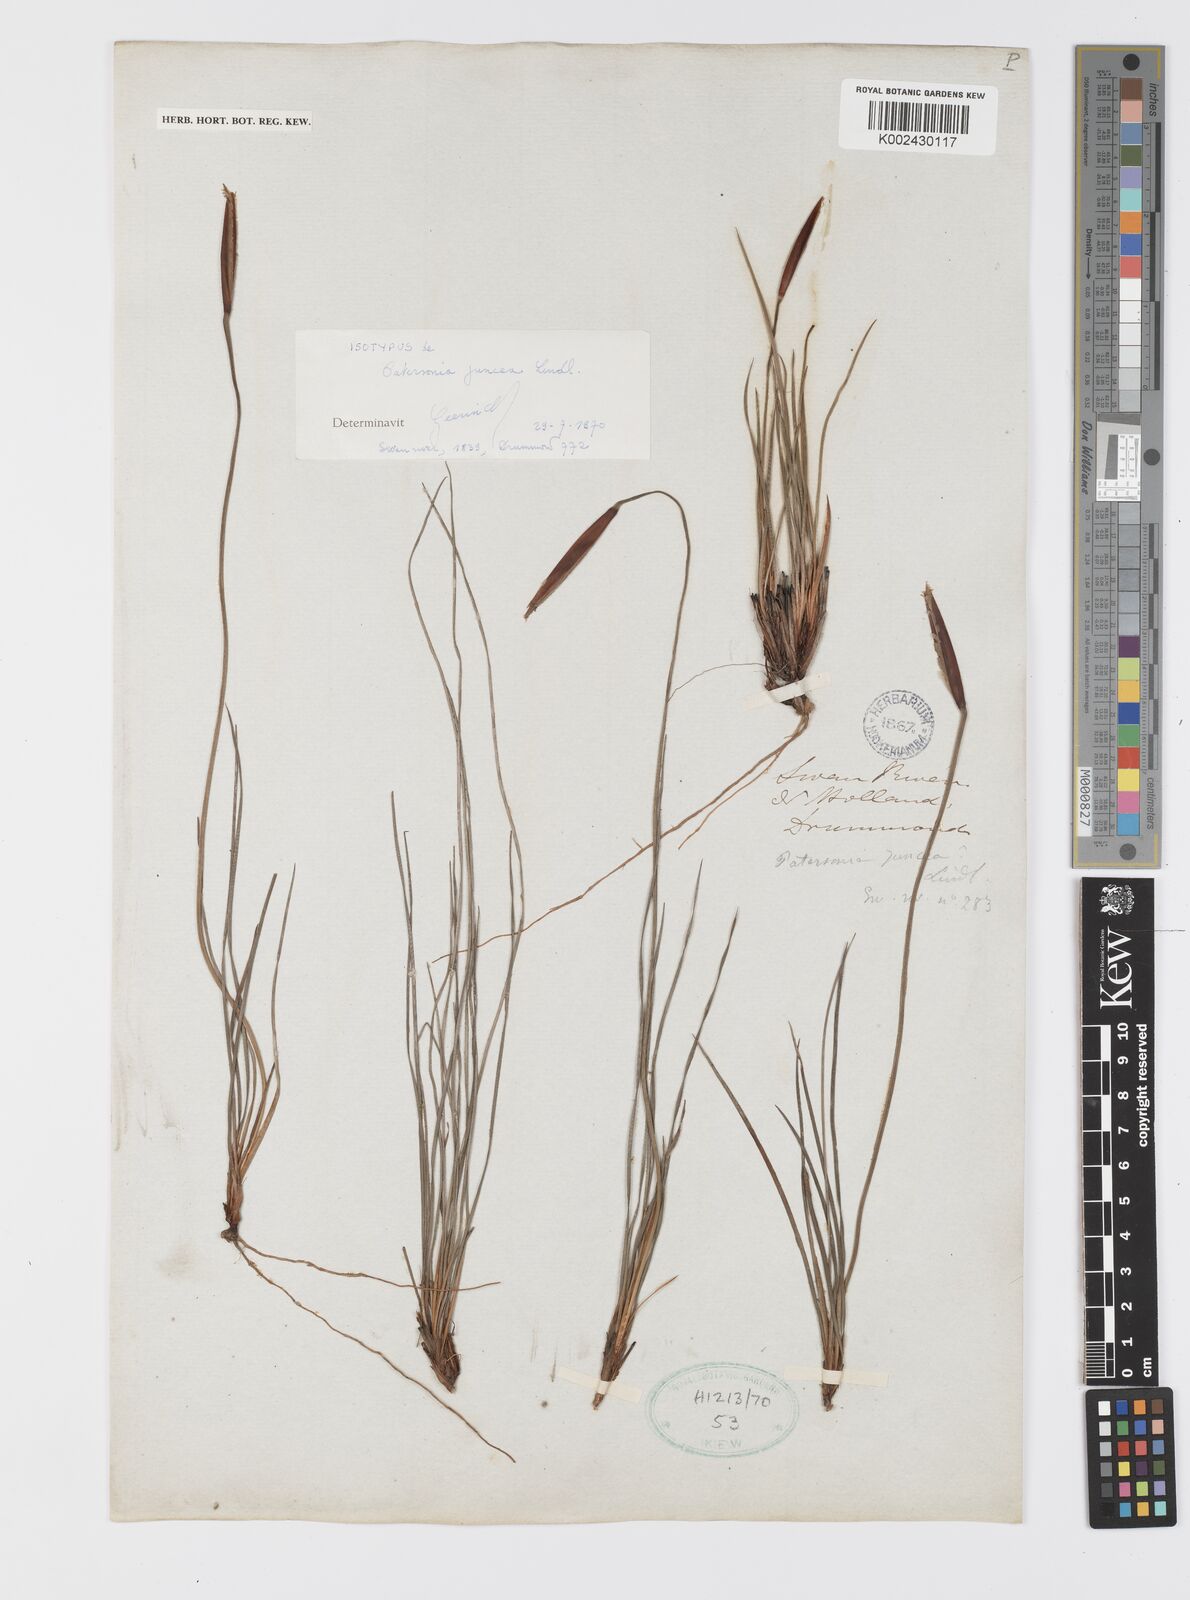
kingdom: Plantae
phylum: Tracheophyta
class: Liliopsida
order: Asparagales
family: Iridaceae
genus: Patersonia
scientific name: Patersonia juncea
